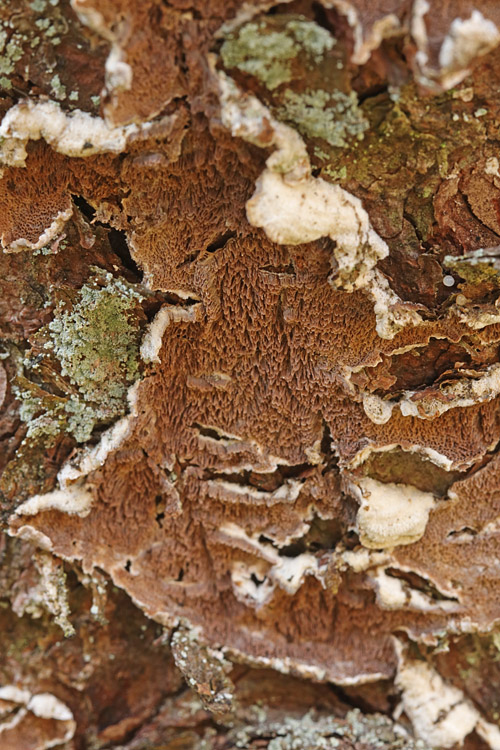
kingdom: Fungi
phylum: Basidiomycota
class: Agaricomycetes
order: Hymenochaetales
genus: Trichaptum
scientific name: Trichaptum fuscoviolaceum
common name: tandet violporesvamp
